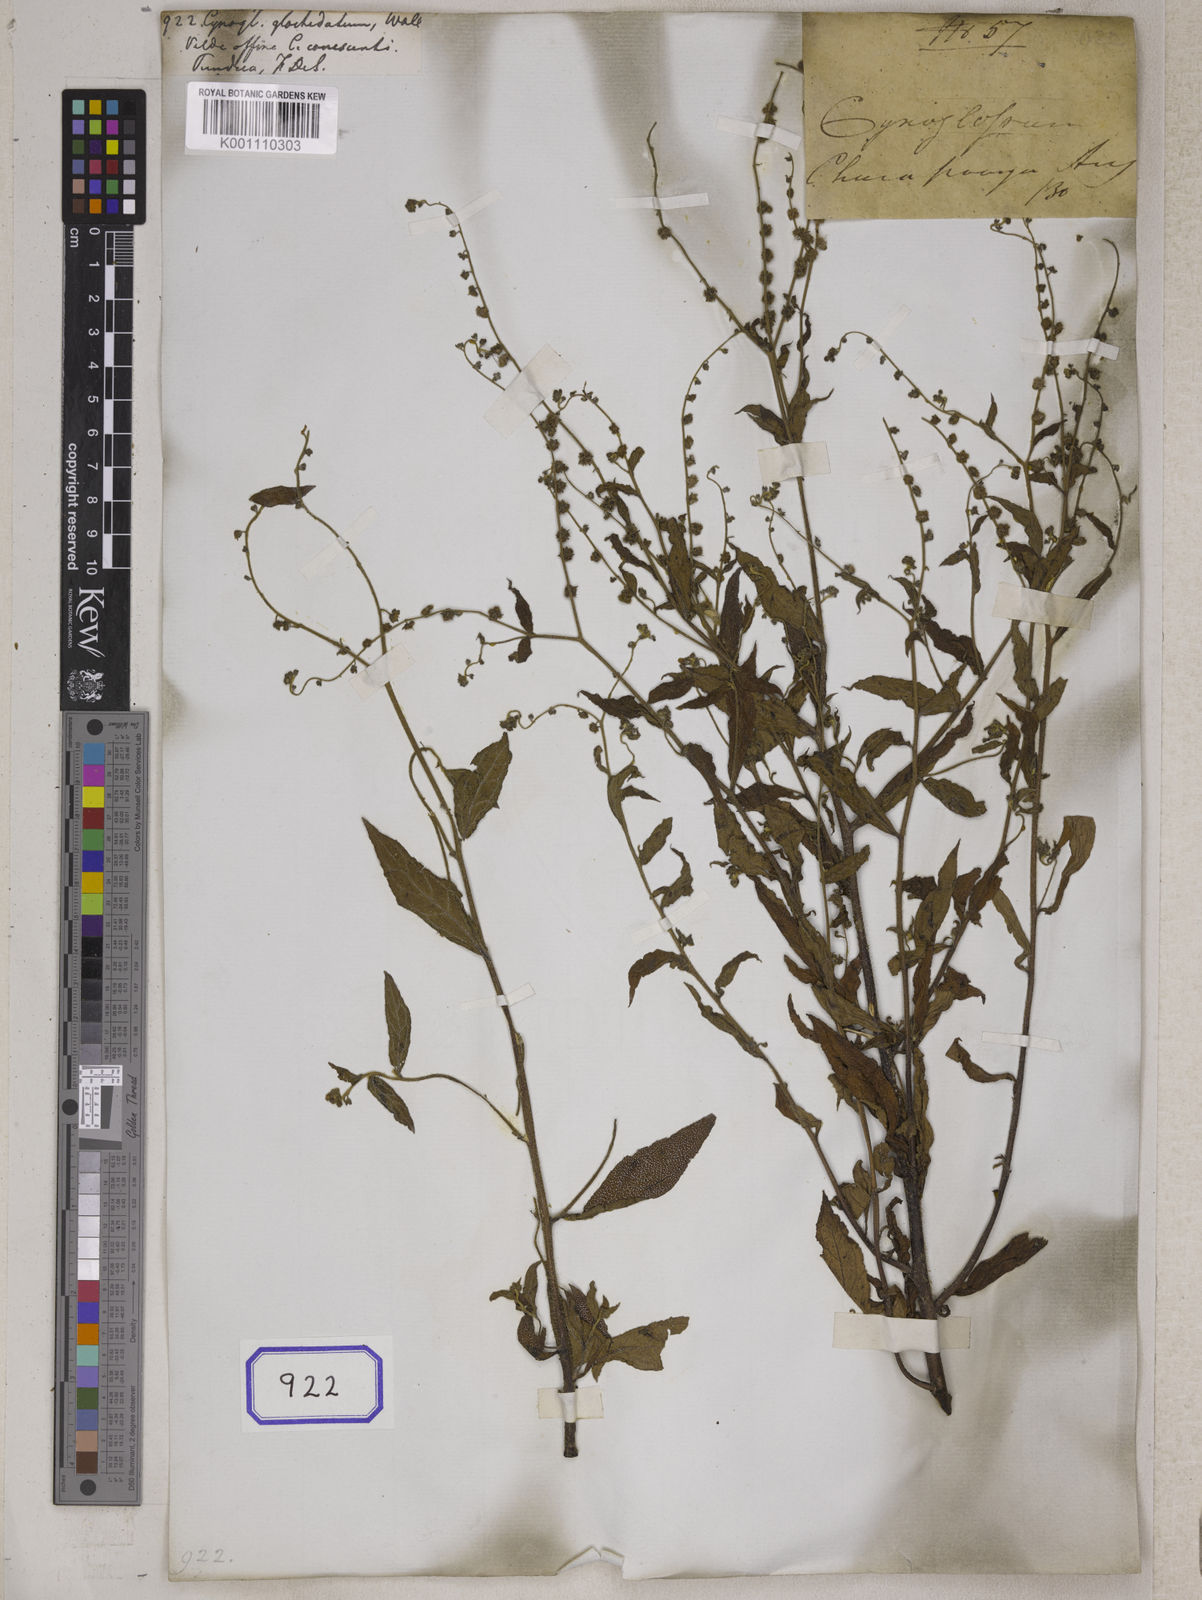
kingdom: Plantae
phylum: Tracheophyta
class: Magnoliopsida
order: Boraginales
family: Boraginaceae
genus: Cynoglossum
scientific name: Cynoglossum
